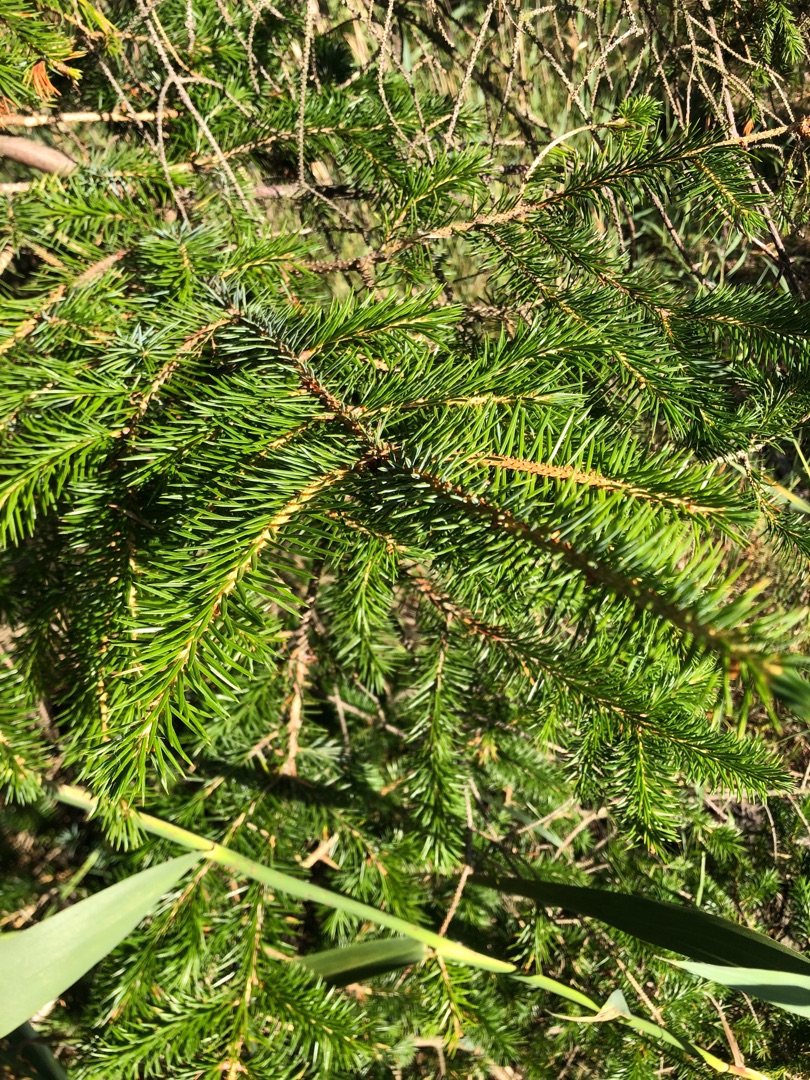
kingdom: Plantae
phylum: Tracheophyta
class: Pinopsida
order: Pinales
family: Pinaceae
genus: Picea
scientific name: Picea sitchensis
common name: Sitka-gran
